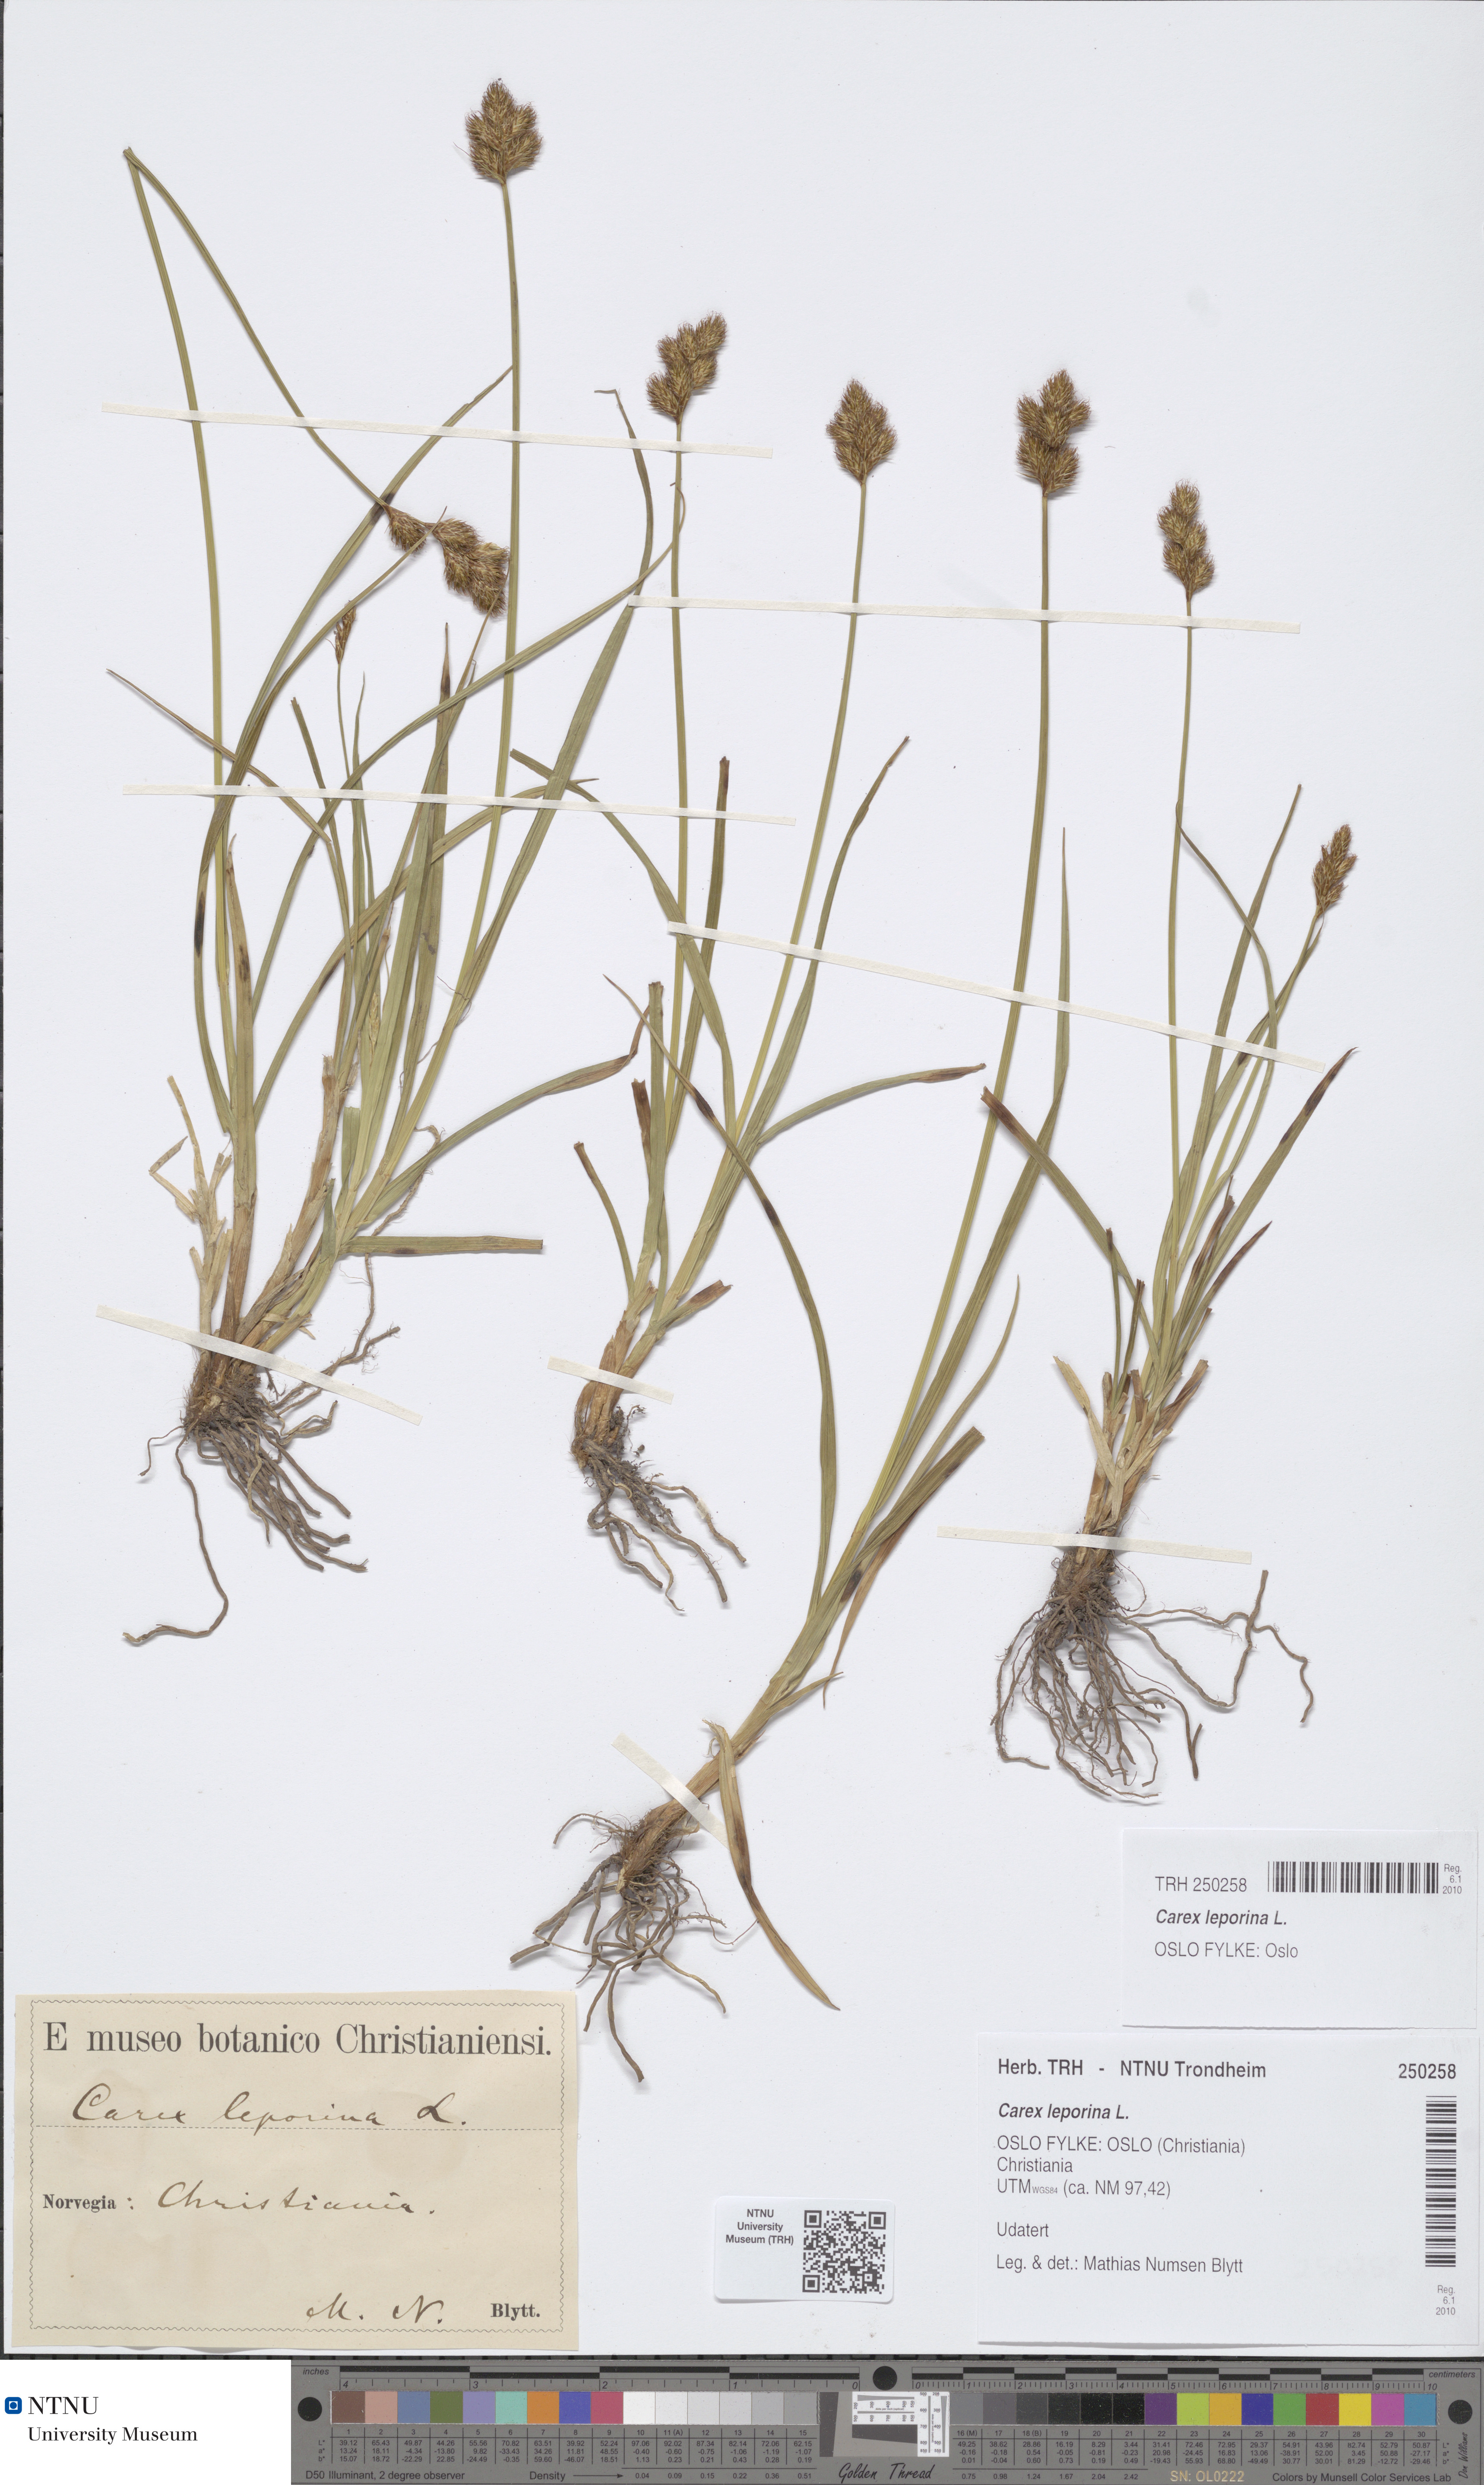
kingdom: Plantae
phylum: Tracheophyta
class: Liliopsida
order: Poales
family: Cyperaceae
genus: Carex
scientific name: Carex leporina
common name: Oval sedge
